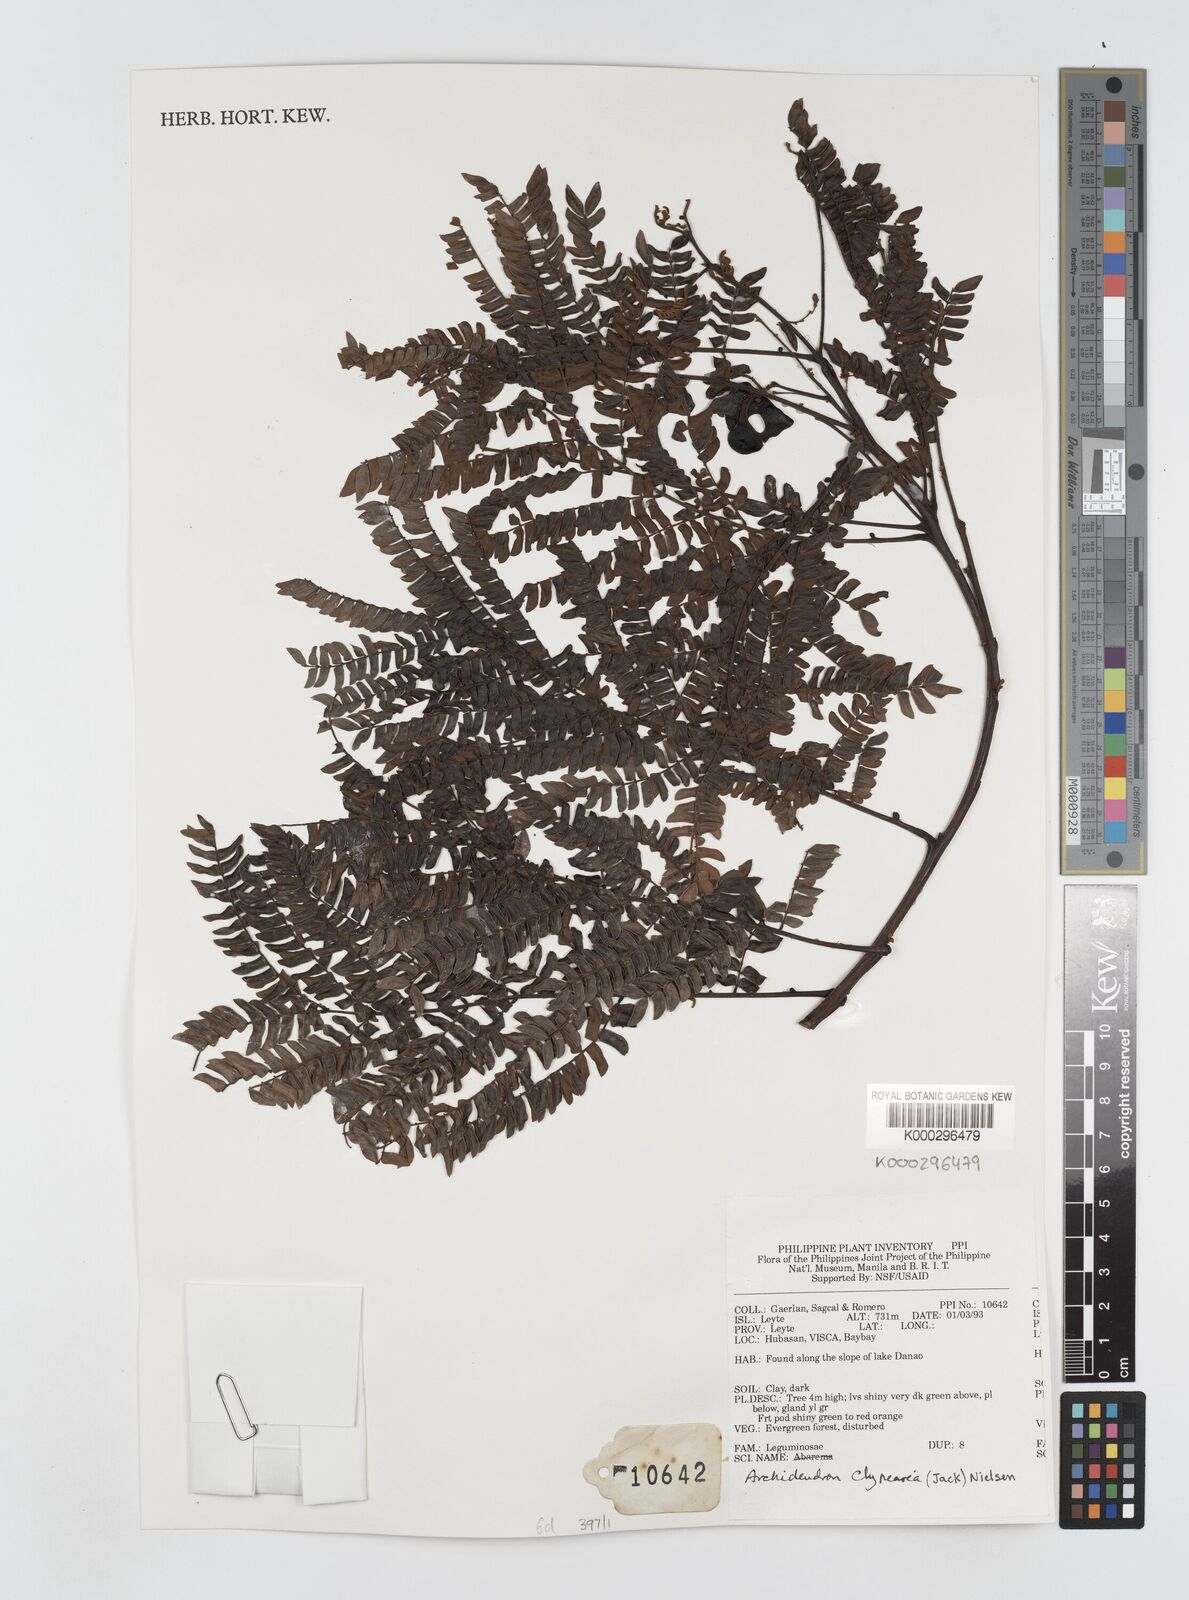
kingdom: Plantae
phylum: Tracheophyta
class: Magnoliopsida
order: Fabales
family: Fabaceae
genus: Archidendron
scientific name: Archidendron clypearia
